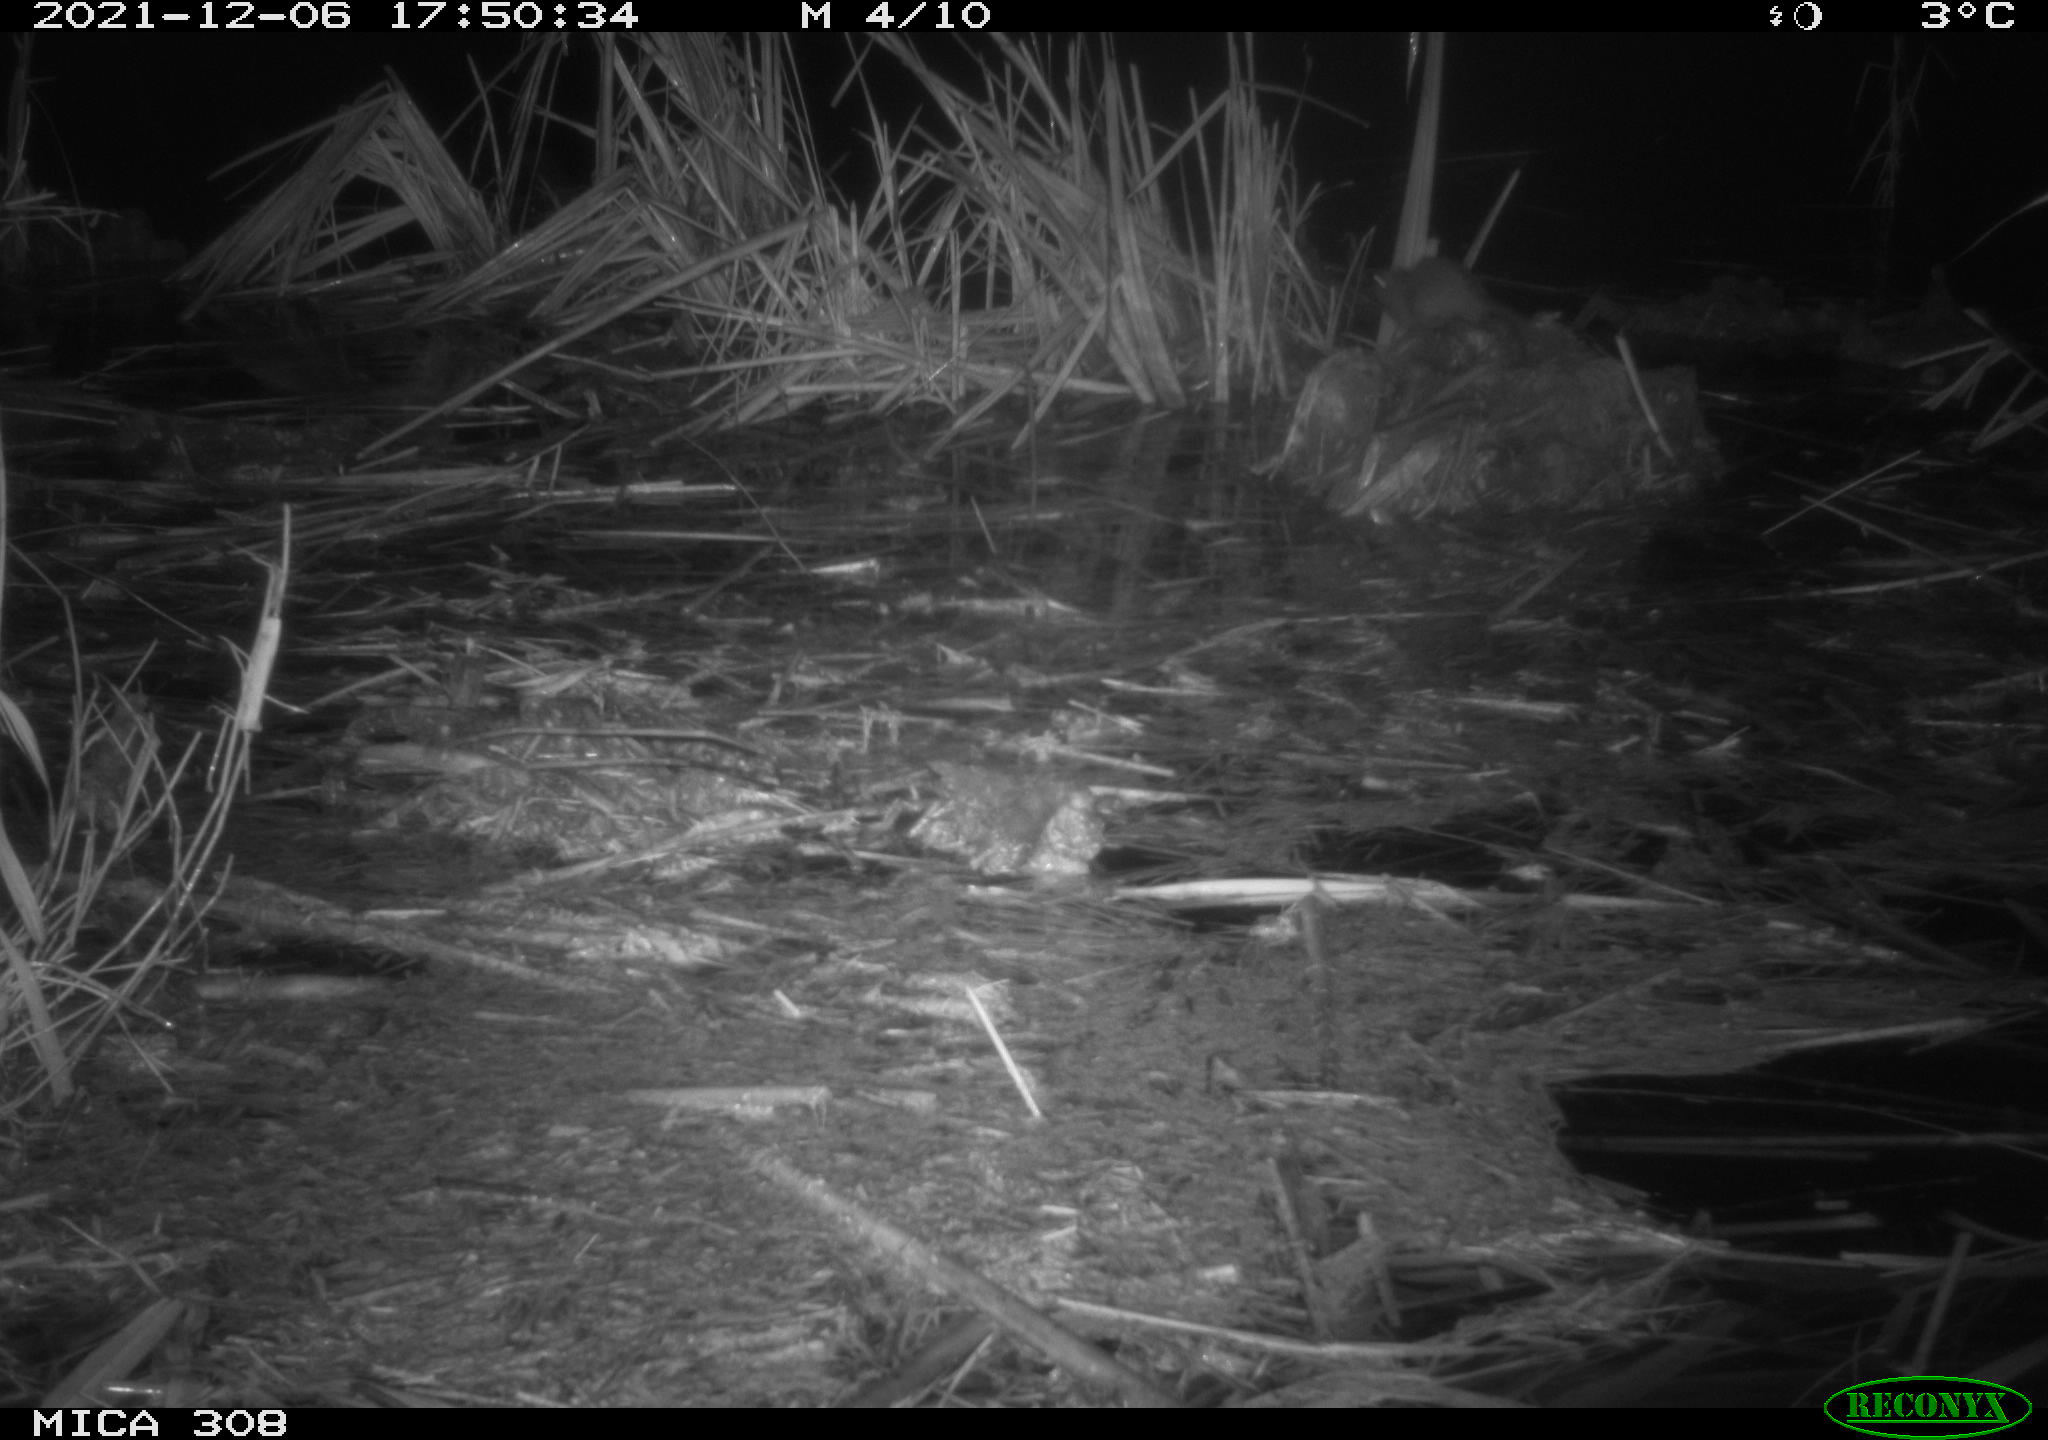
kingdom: Animalia
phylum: Chordata
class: Mammalia
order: Rodentia
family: Muridae
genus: Rattus
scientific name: Rattus norvegicus
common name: Brown rat
